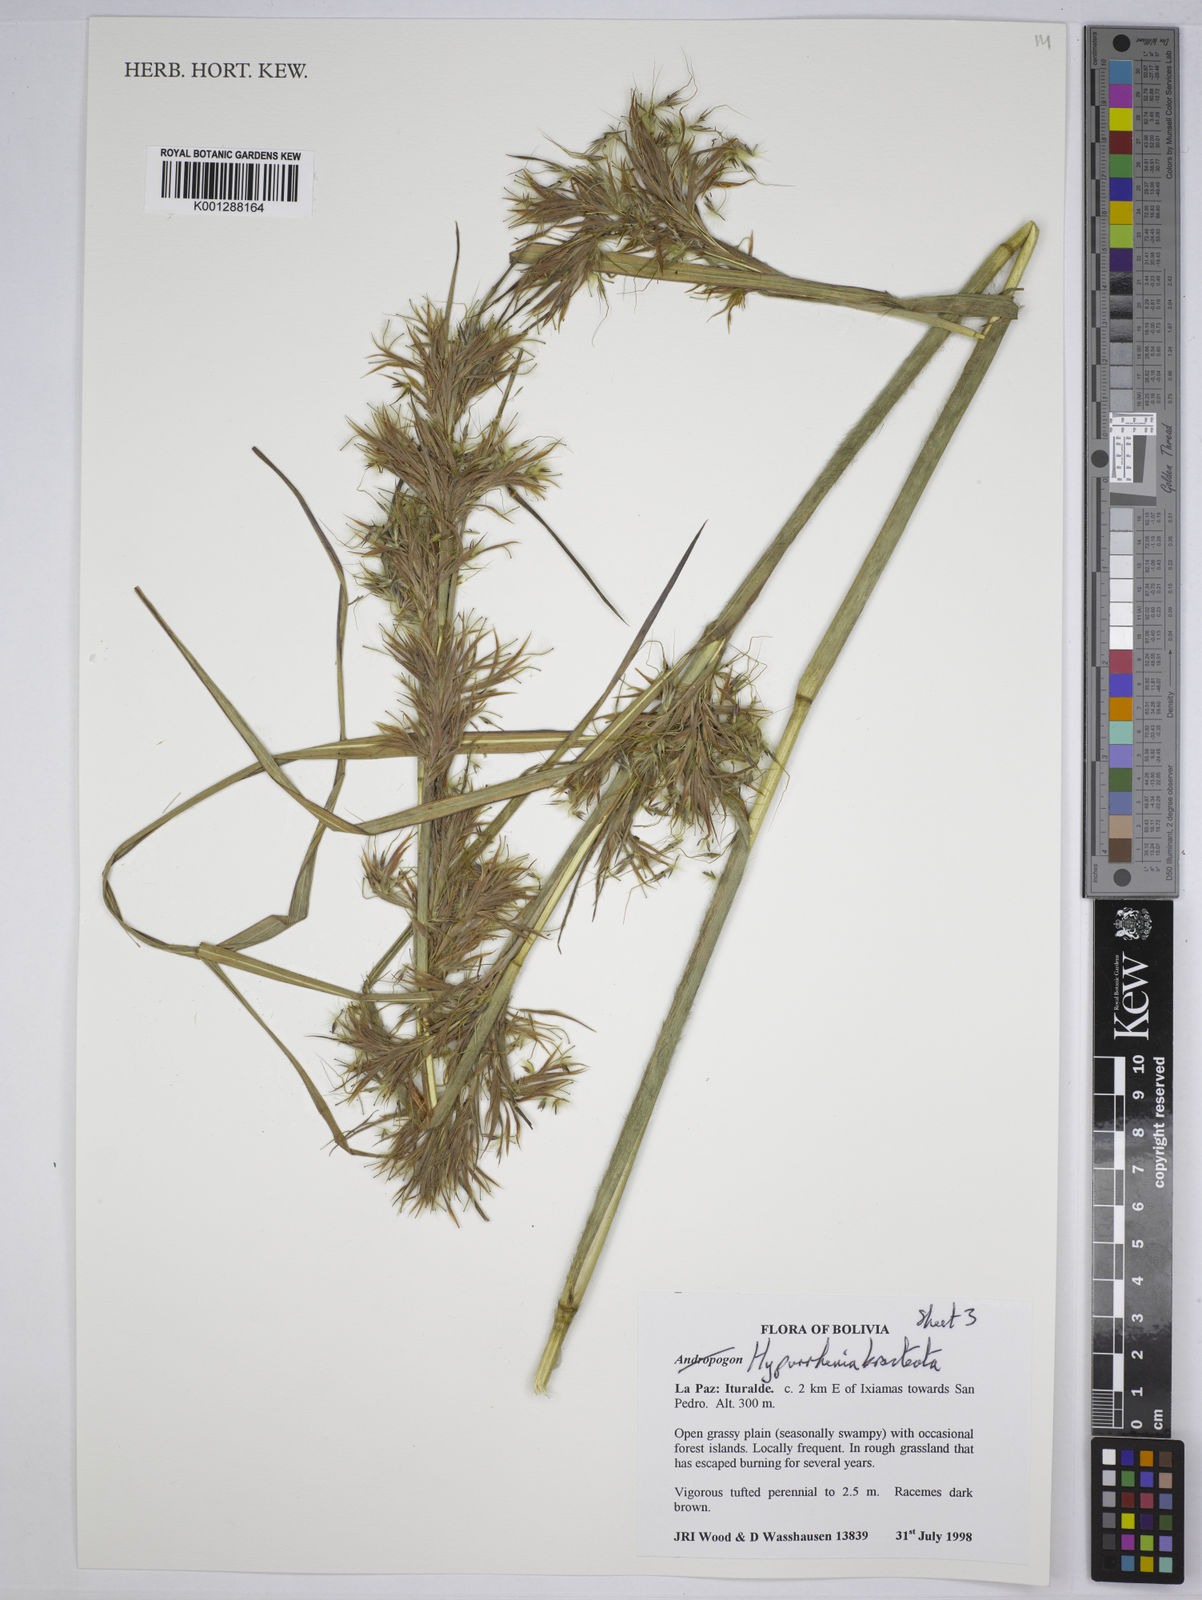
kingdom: Plantae
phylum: Tracheophyta
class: Liliopsida
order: Poales
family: Poaceae
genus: Hyparrhenia
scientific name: Hyparrhenia bracteata
